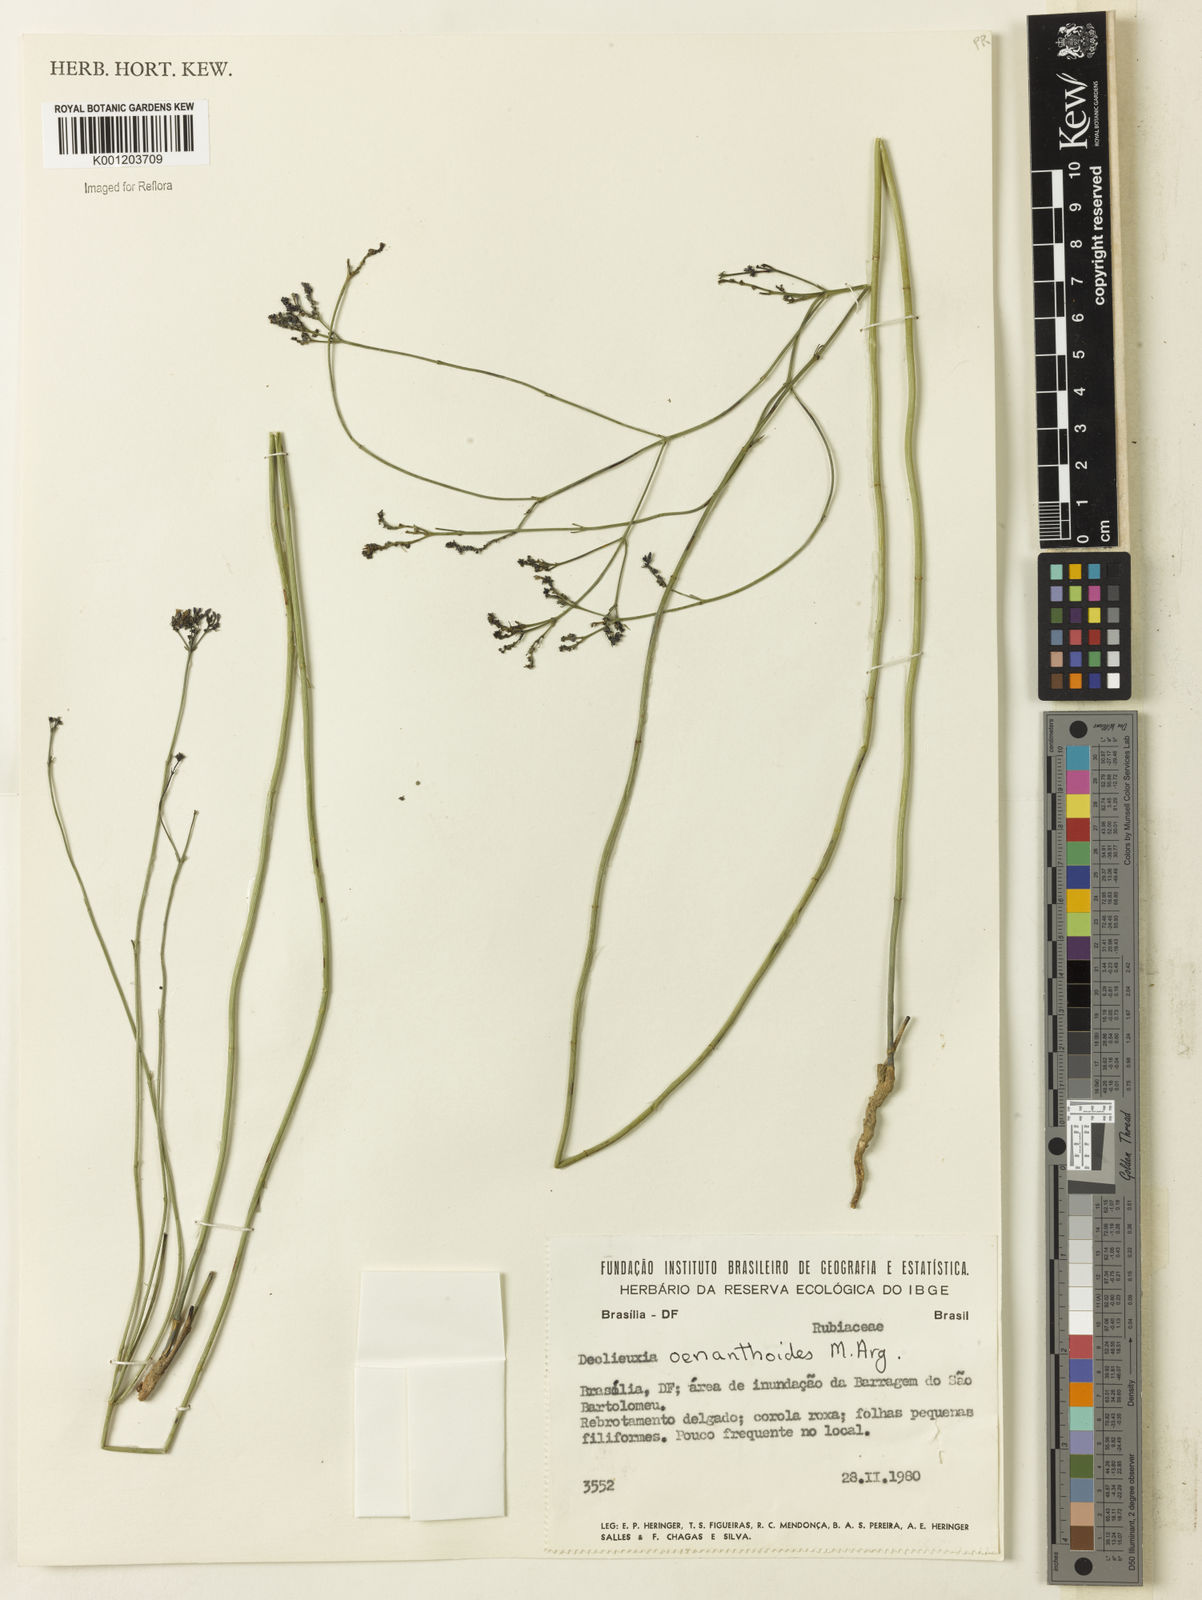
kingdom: Plantae
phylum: Tracheophyta
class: Magnoliopsida
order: Gentianales
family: Rubiaceae
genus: Declieuxia
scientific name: Declieuxia
